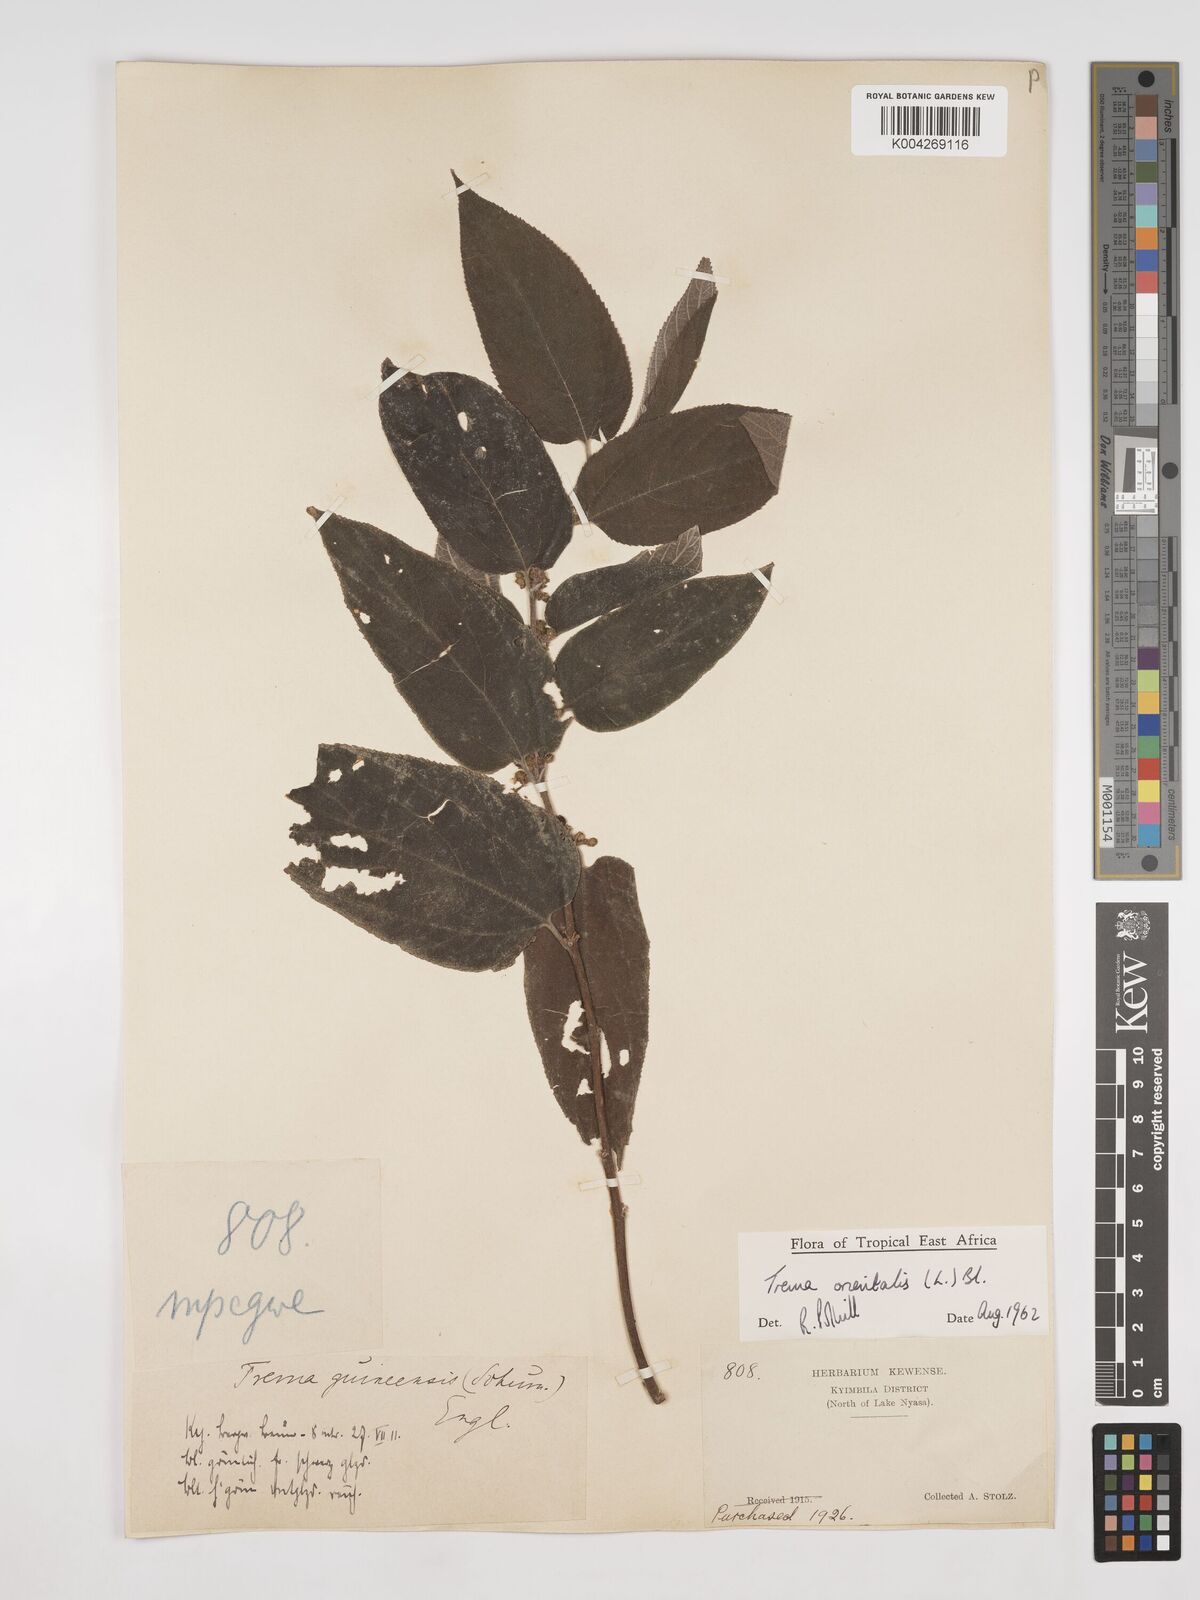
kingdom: Plantae
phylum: Tracheophyta
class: Magnoliopsida
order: Rosales
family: Cannabaceae
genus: Trema
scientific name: Trema orientale
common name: Indian charcoal tree
